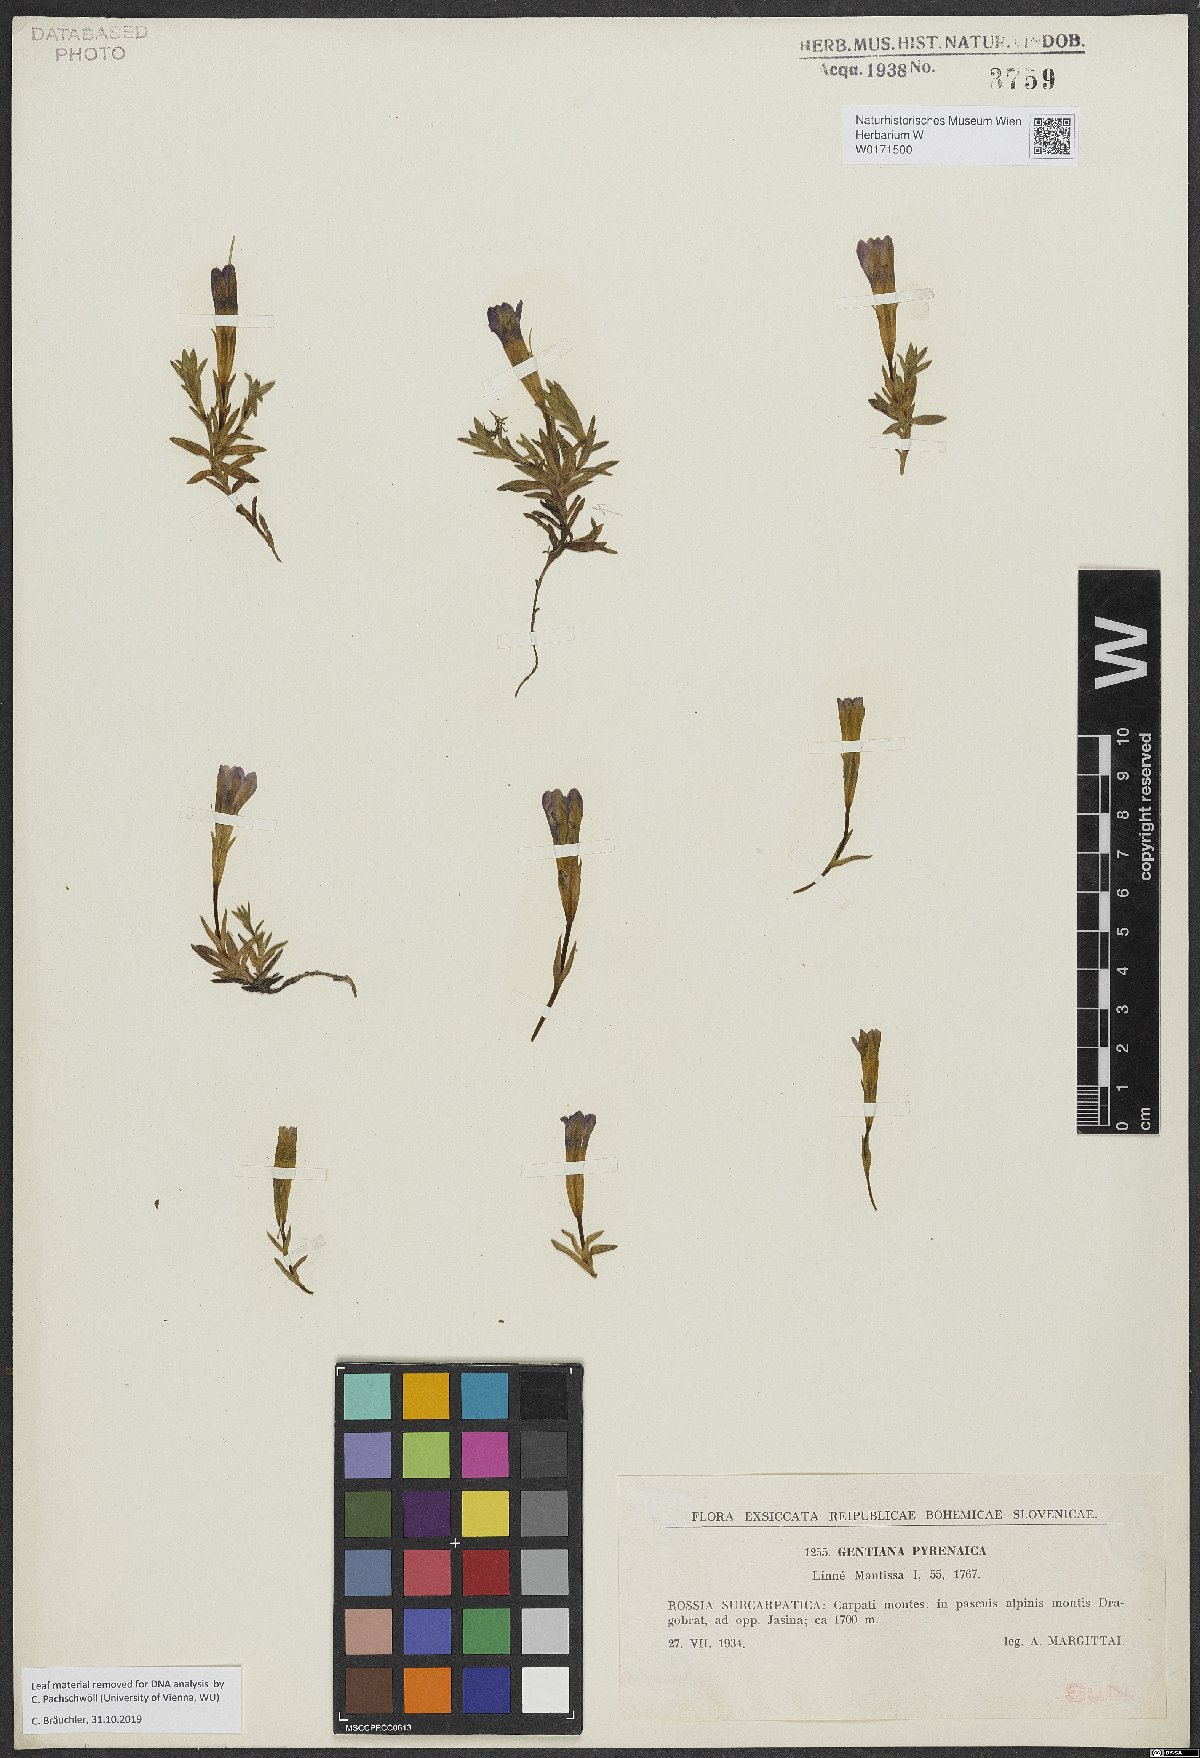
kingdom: Plantae
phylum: Tracheophyta
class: Magnoliopsida
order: Gentianales
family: Gentianaceae
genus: Gentiana
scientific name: Gentiana pyrenaica
